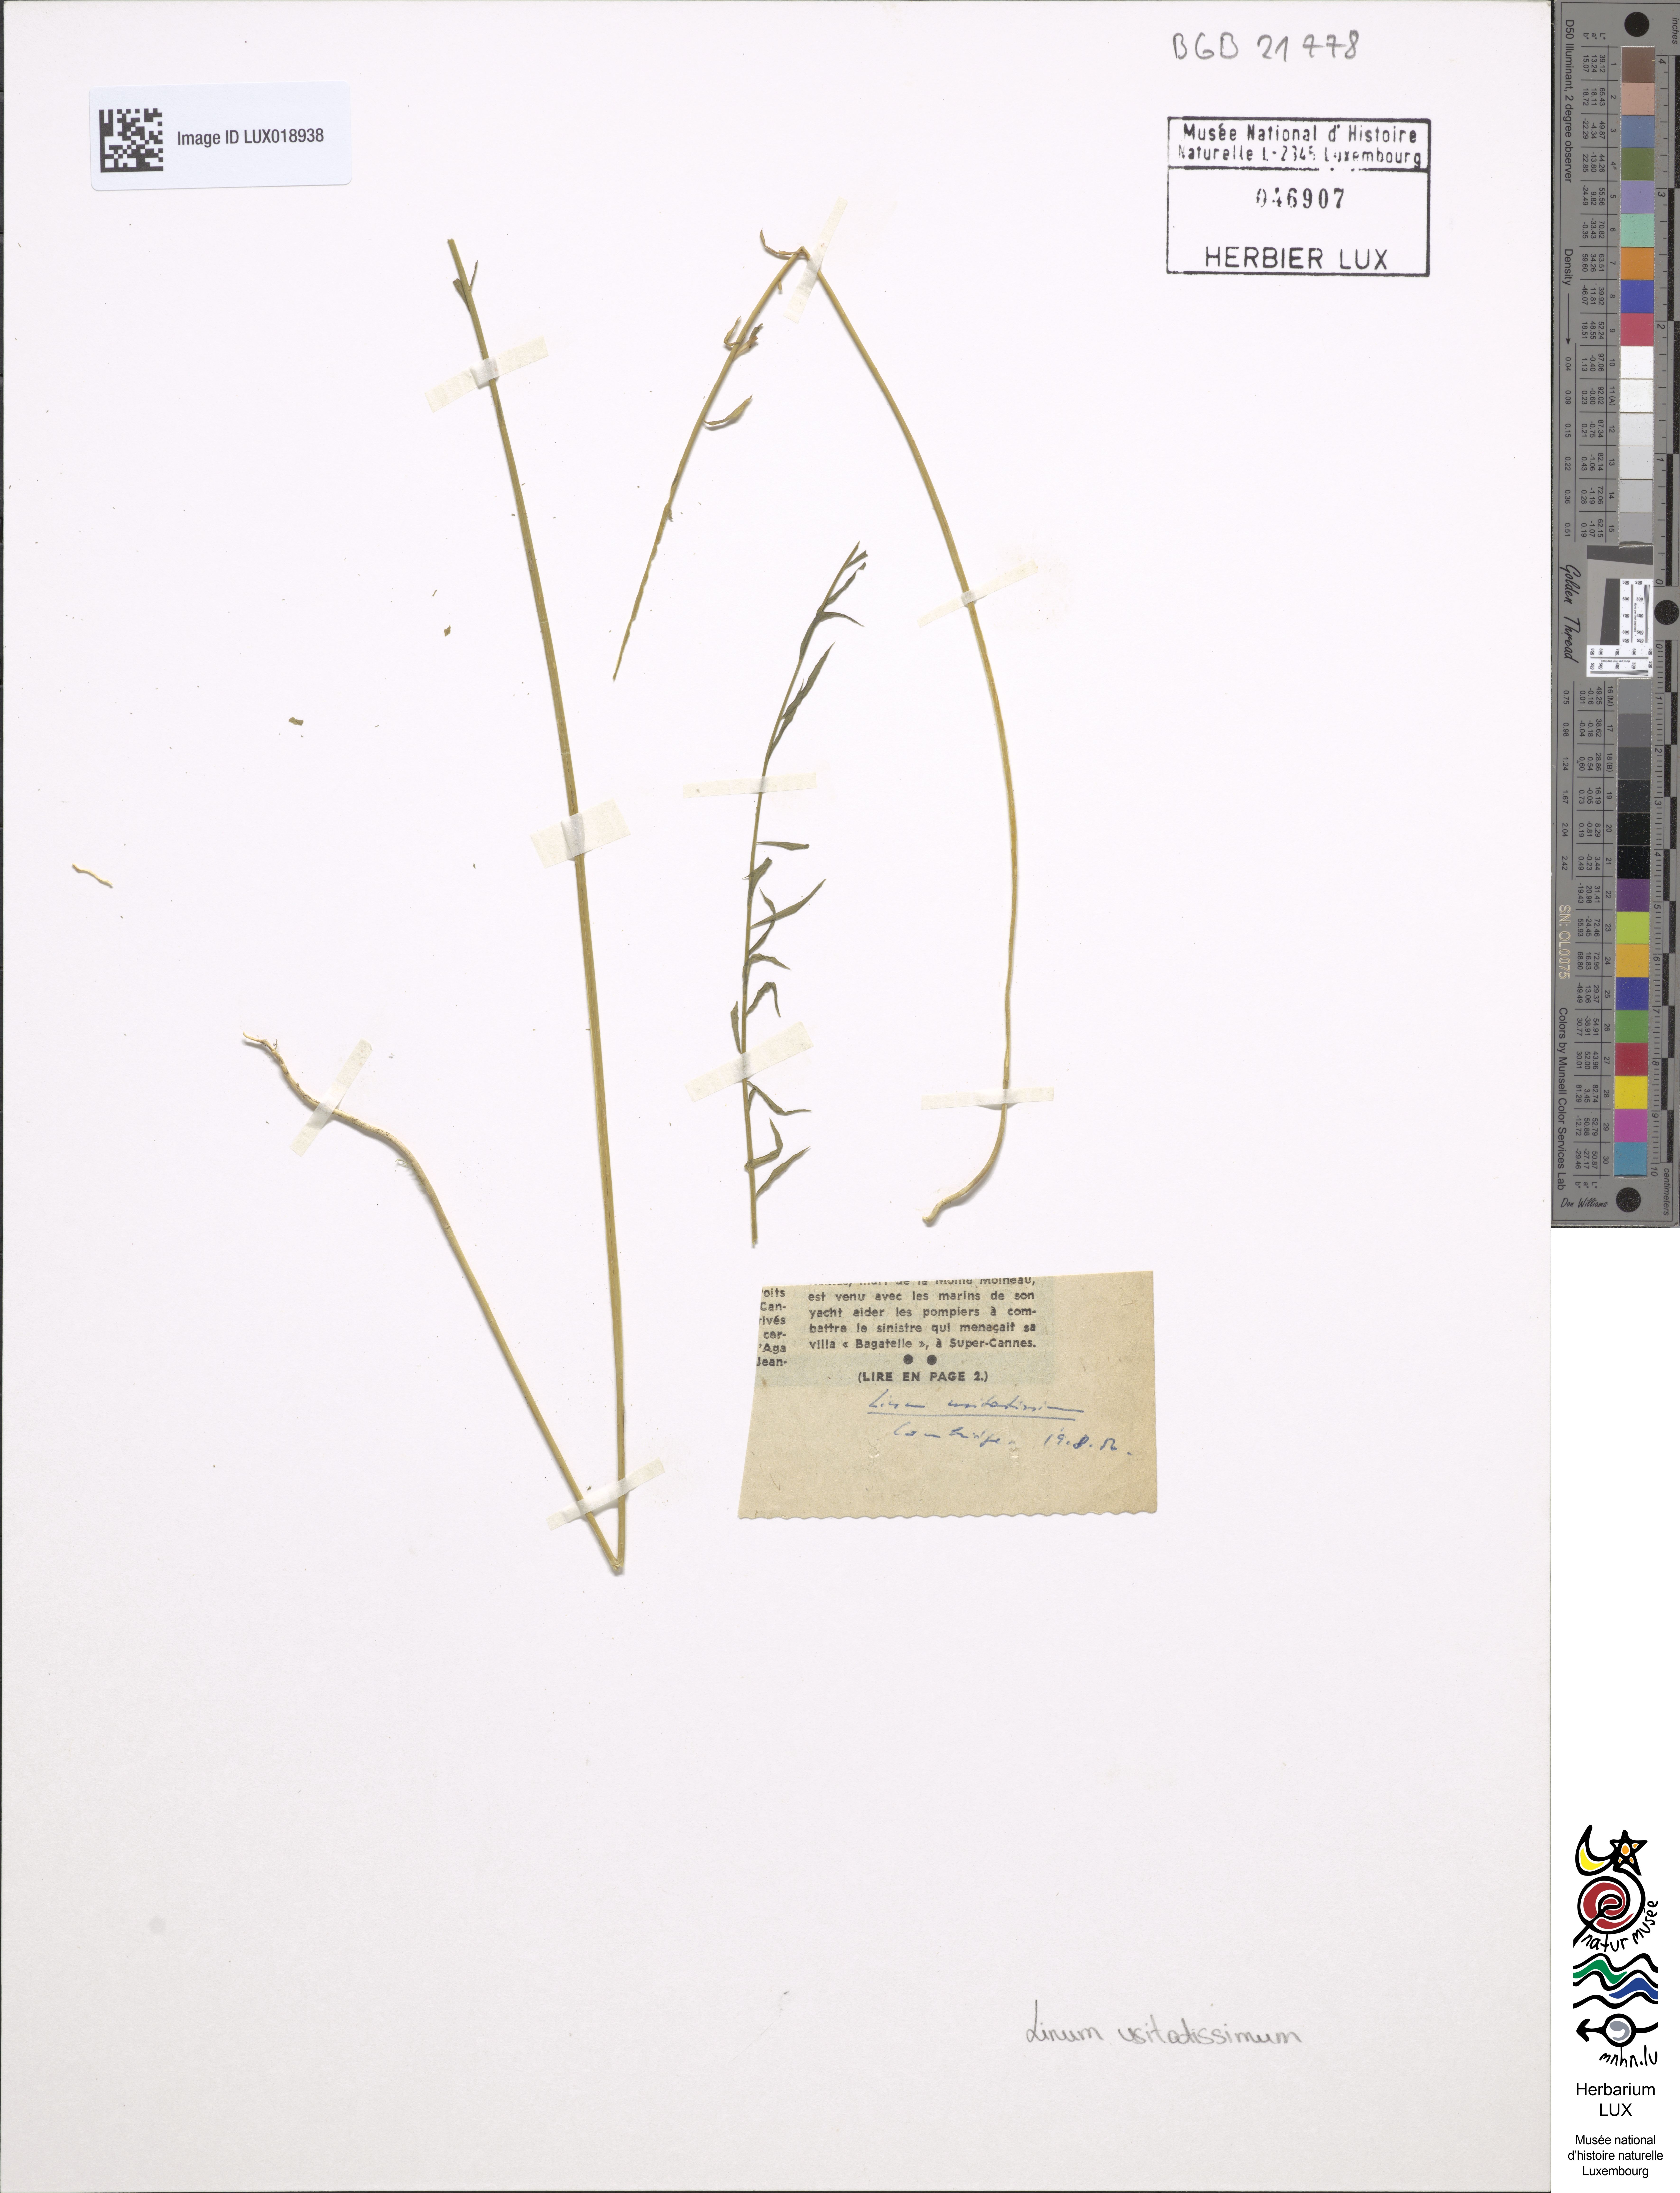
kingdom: Plantae
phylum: Tracheophyta
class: Magnoliopsida
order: Malpighiales
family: Linaceae
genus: Linum
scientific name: Linum usitatissimum
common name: Flax
